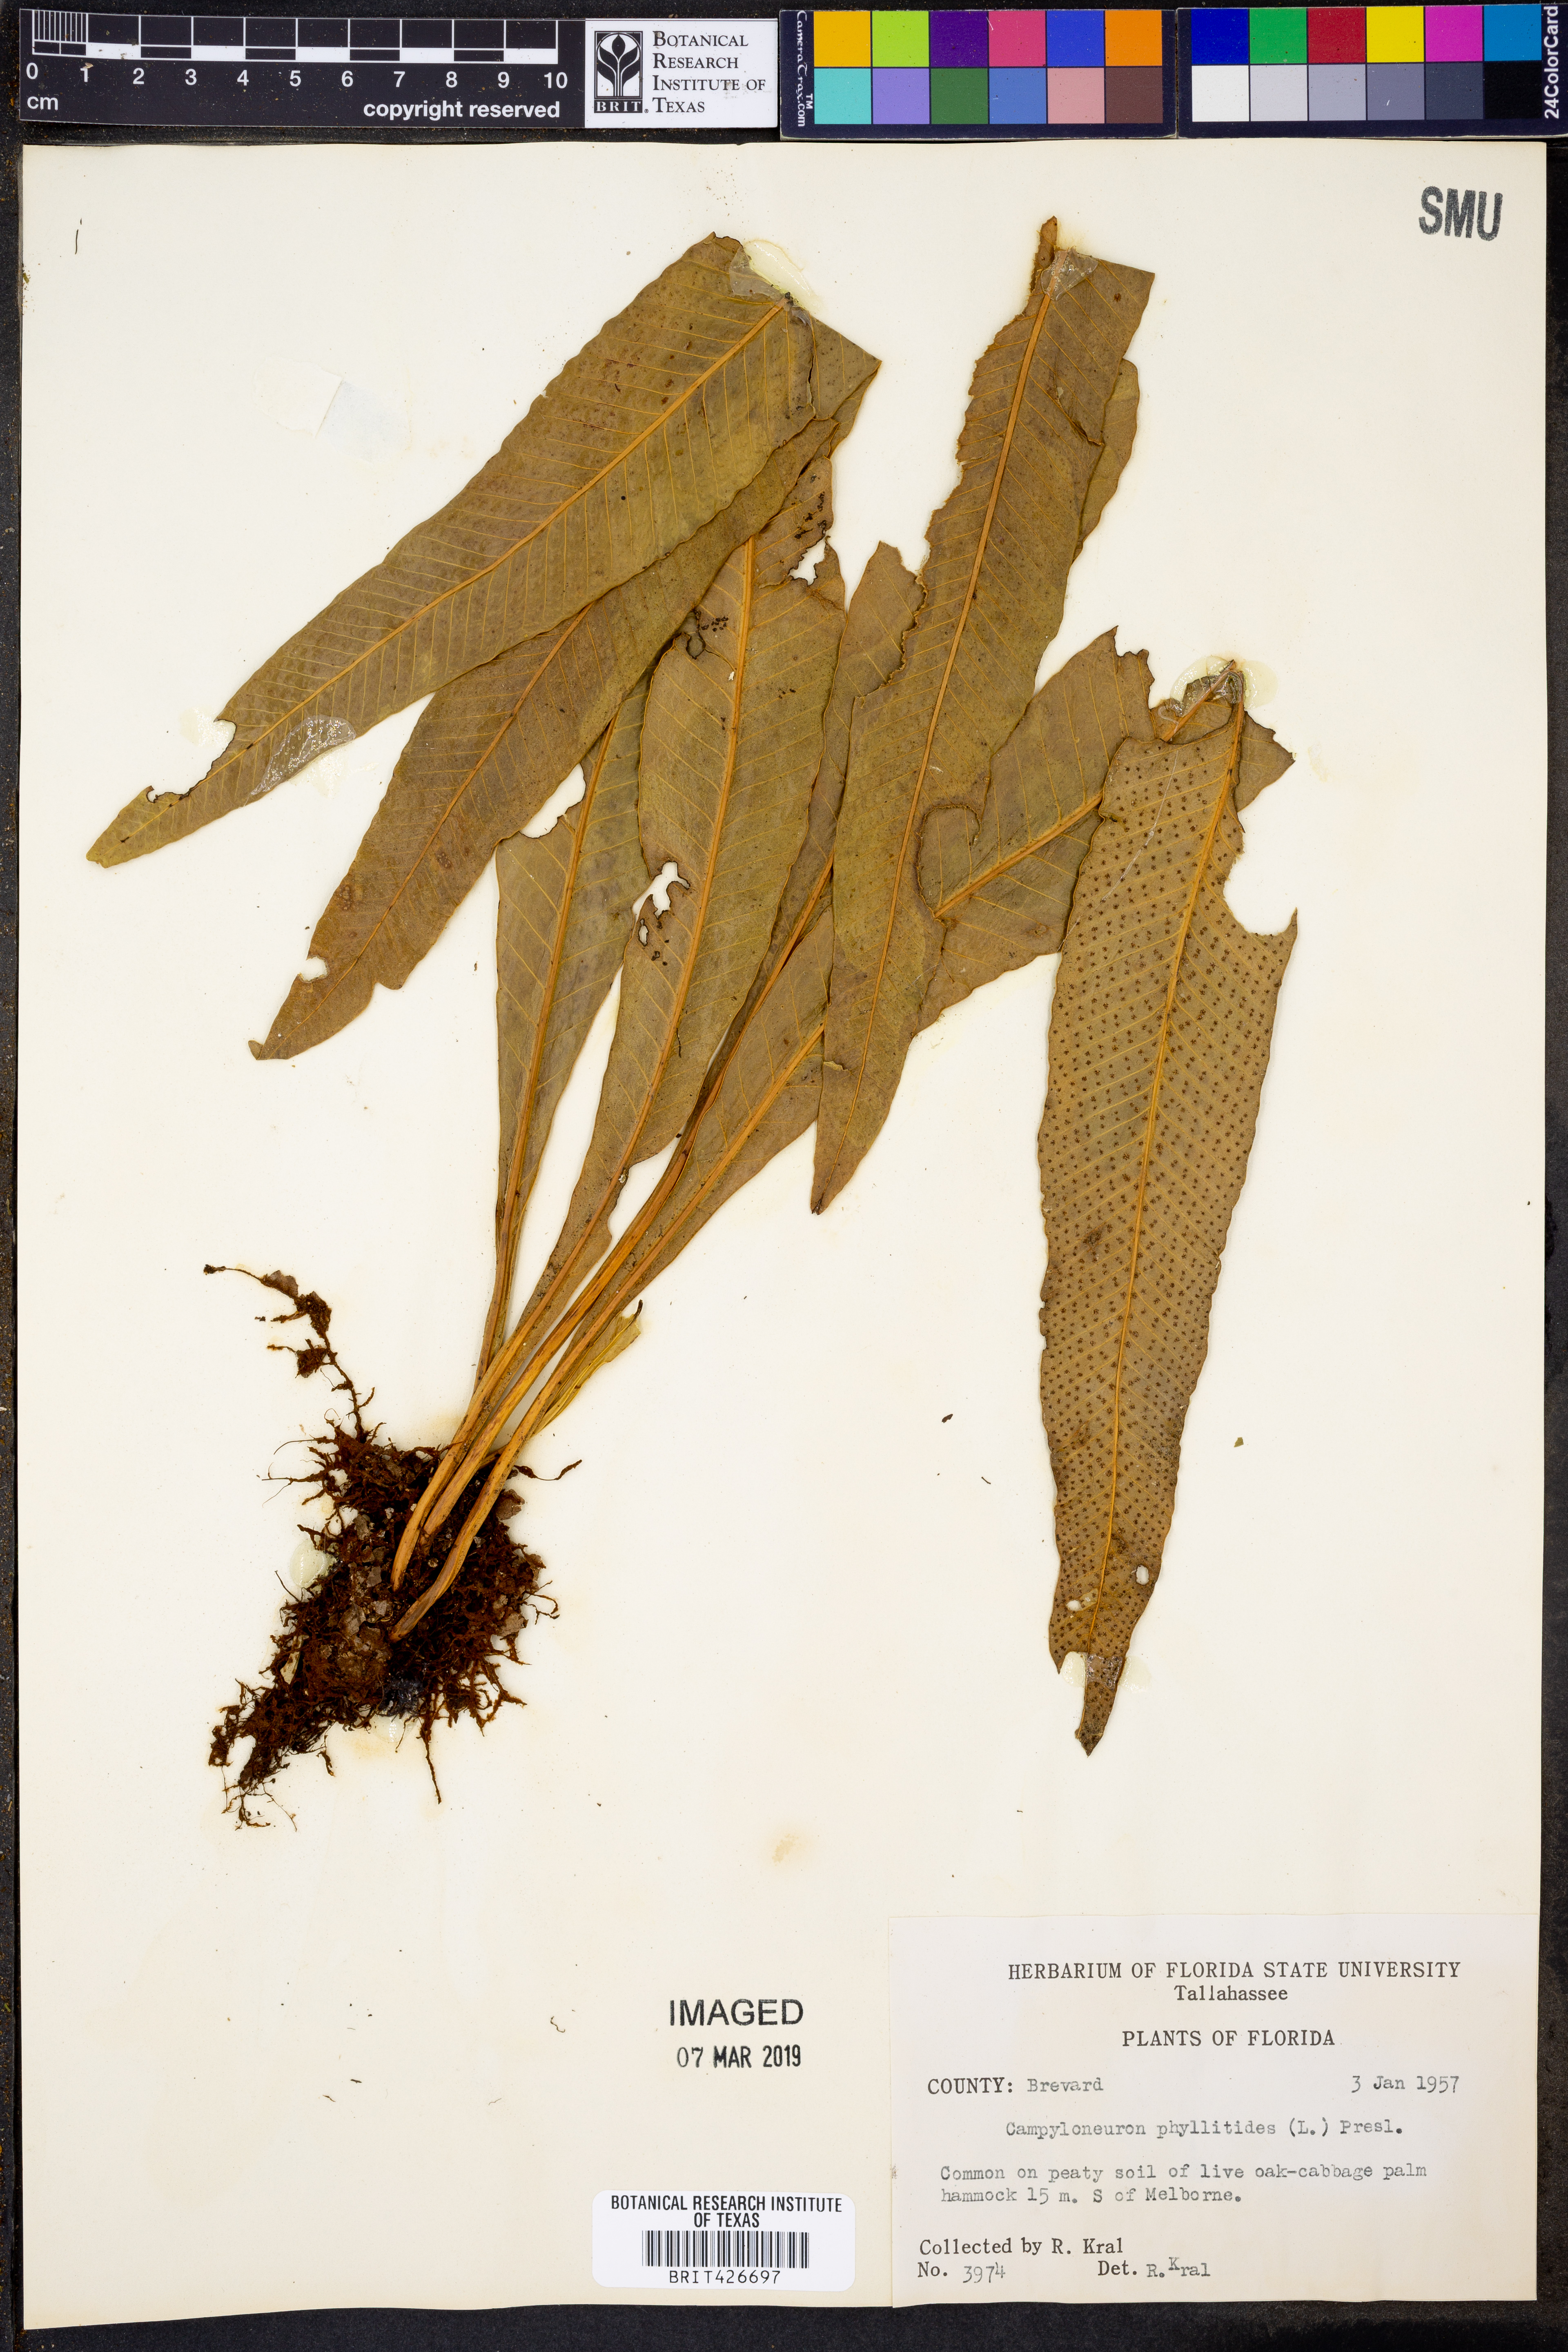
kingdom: Plantae
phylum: Tracheophyta
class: Polypodiopsida
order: Polypodiales
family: Polypodiaceae
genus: Campyloneurum
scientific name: Campyloneurum phyllitidis
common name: Cow-tongue fern
